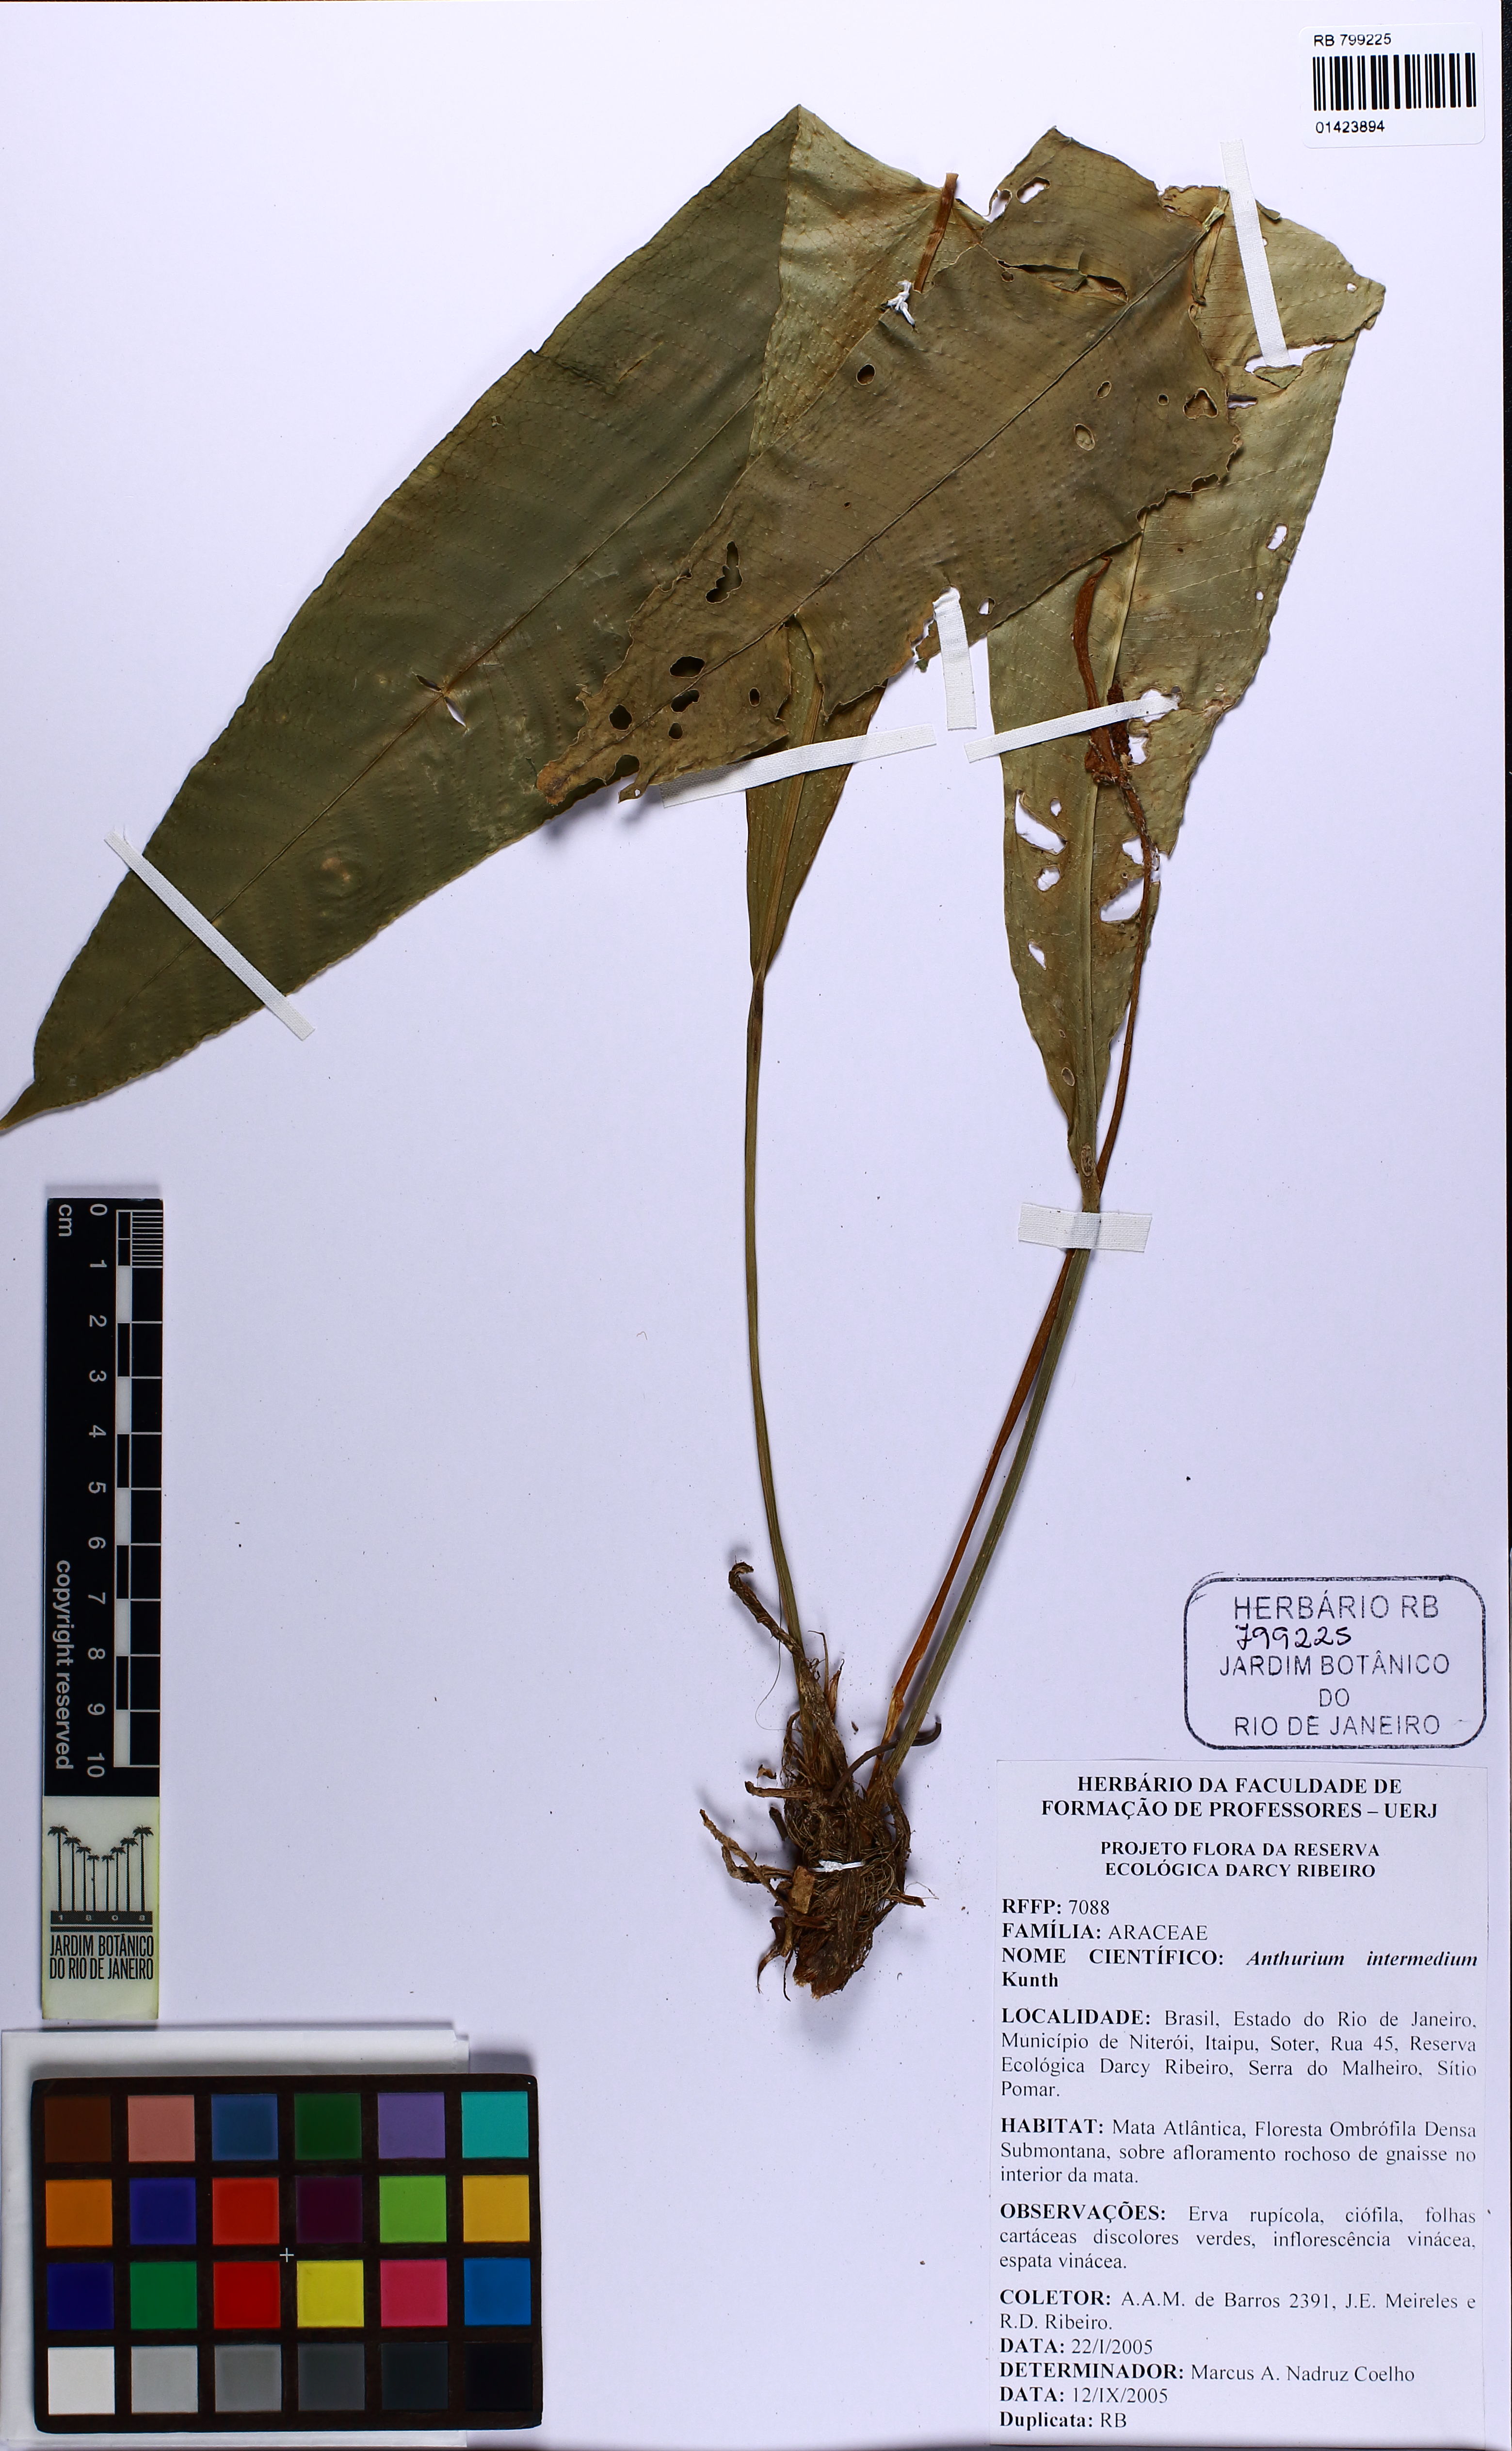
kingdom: Plantae
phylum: Tracheophyta
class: Liliopsida
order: Alismatales
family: Araceae
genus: Anthurium
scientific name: Anthurium intermedium
